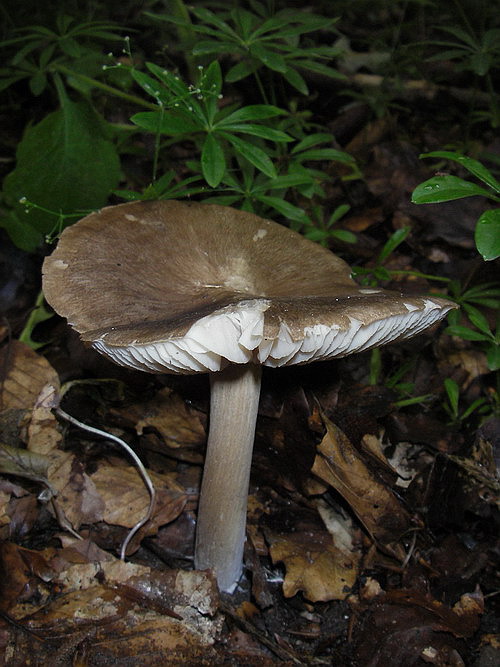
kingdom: Fungi
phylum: Basidiomycota
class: Agaricomycetes
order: Agaricales
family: Tricholomataceae
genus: Megacollybia
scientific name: Megacollybia platyphylla
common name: bredbladet væbnerhat
